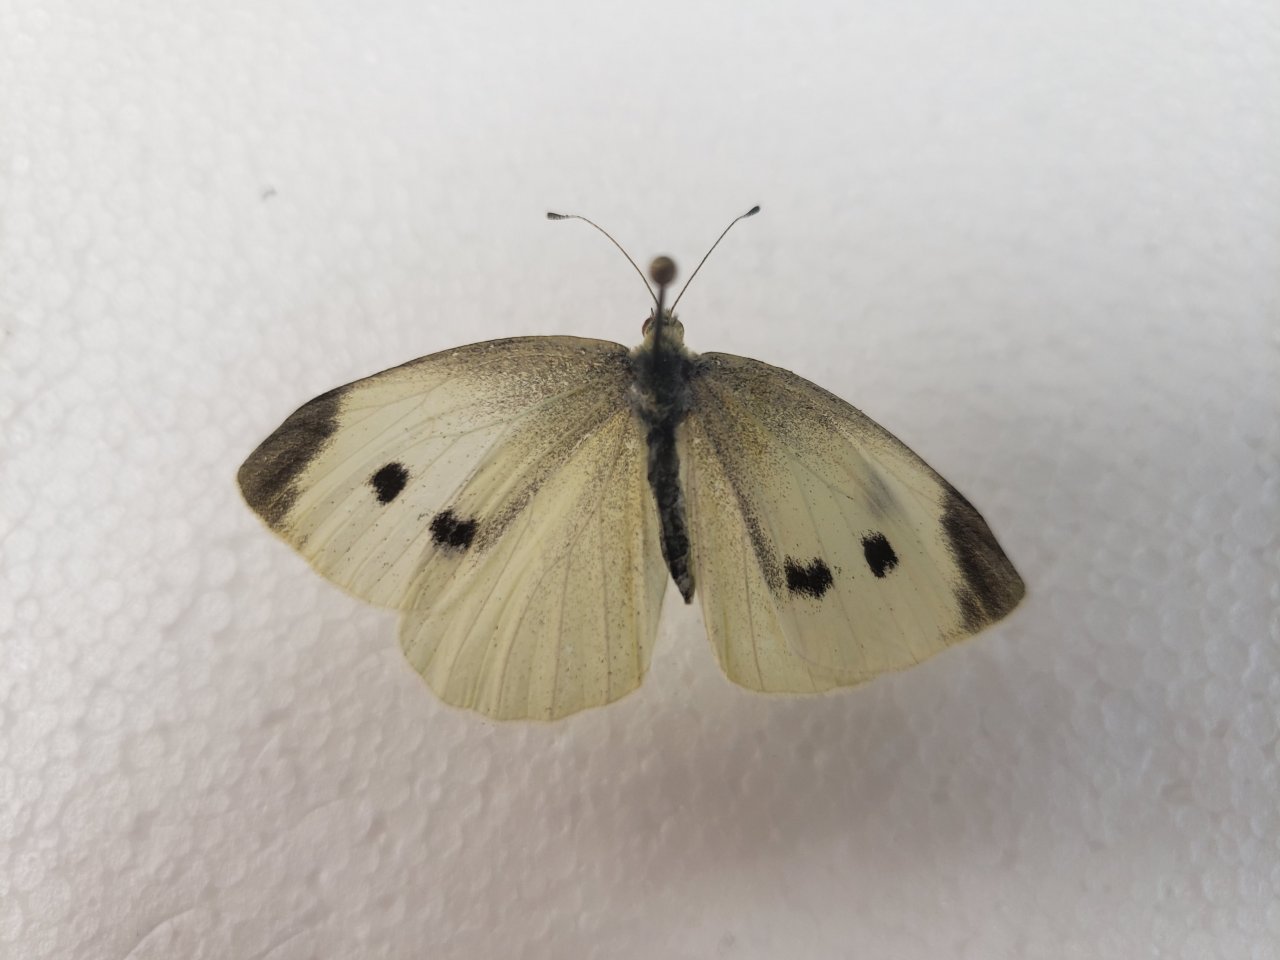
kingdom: Animalia
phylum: Arthropoda
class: Insecta
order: Lepidoptera
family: Pieridae
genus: Pieris
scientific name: Pieris rapae
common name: Cabbage White
